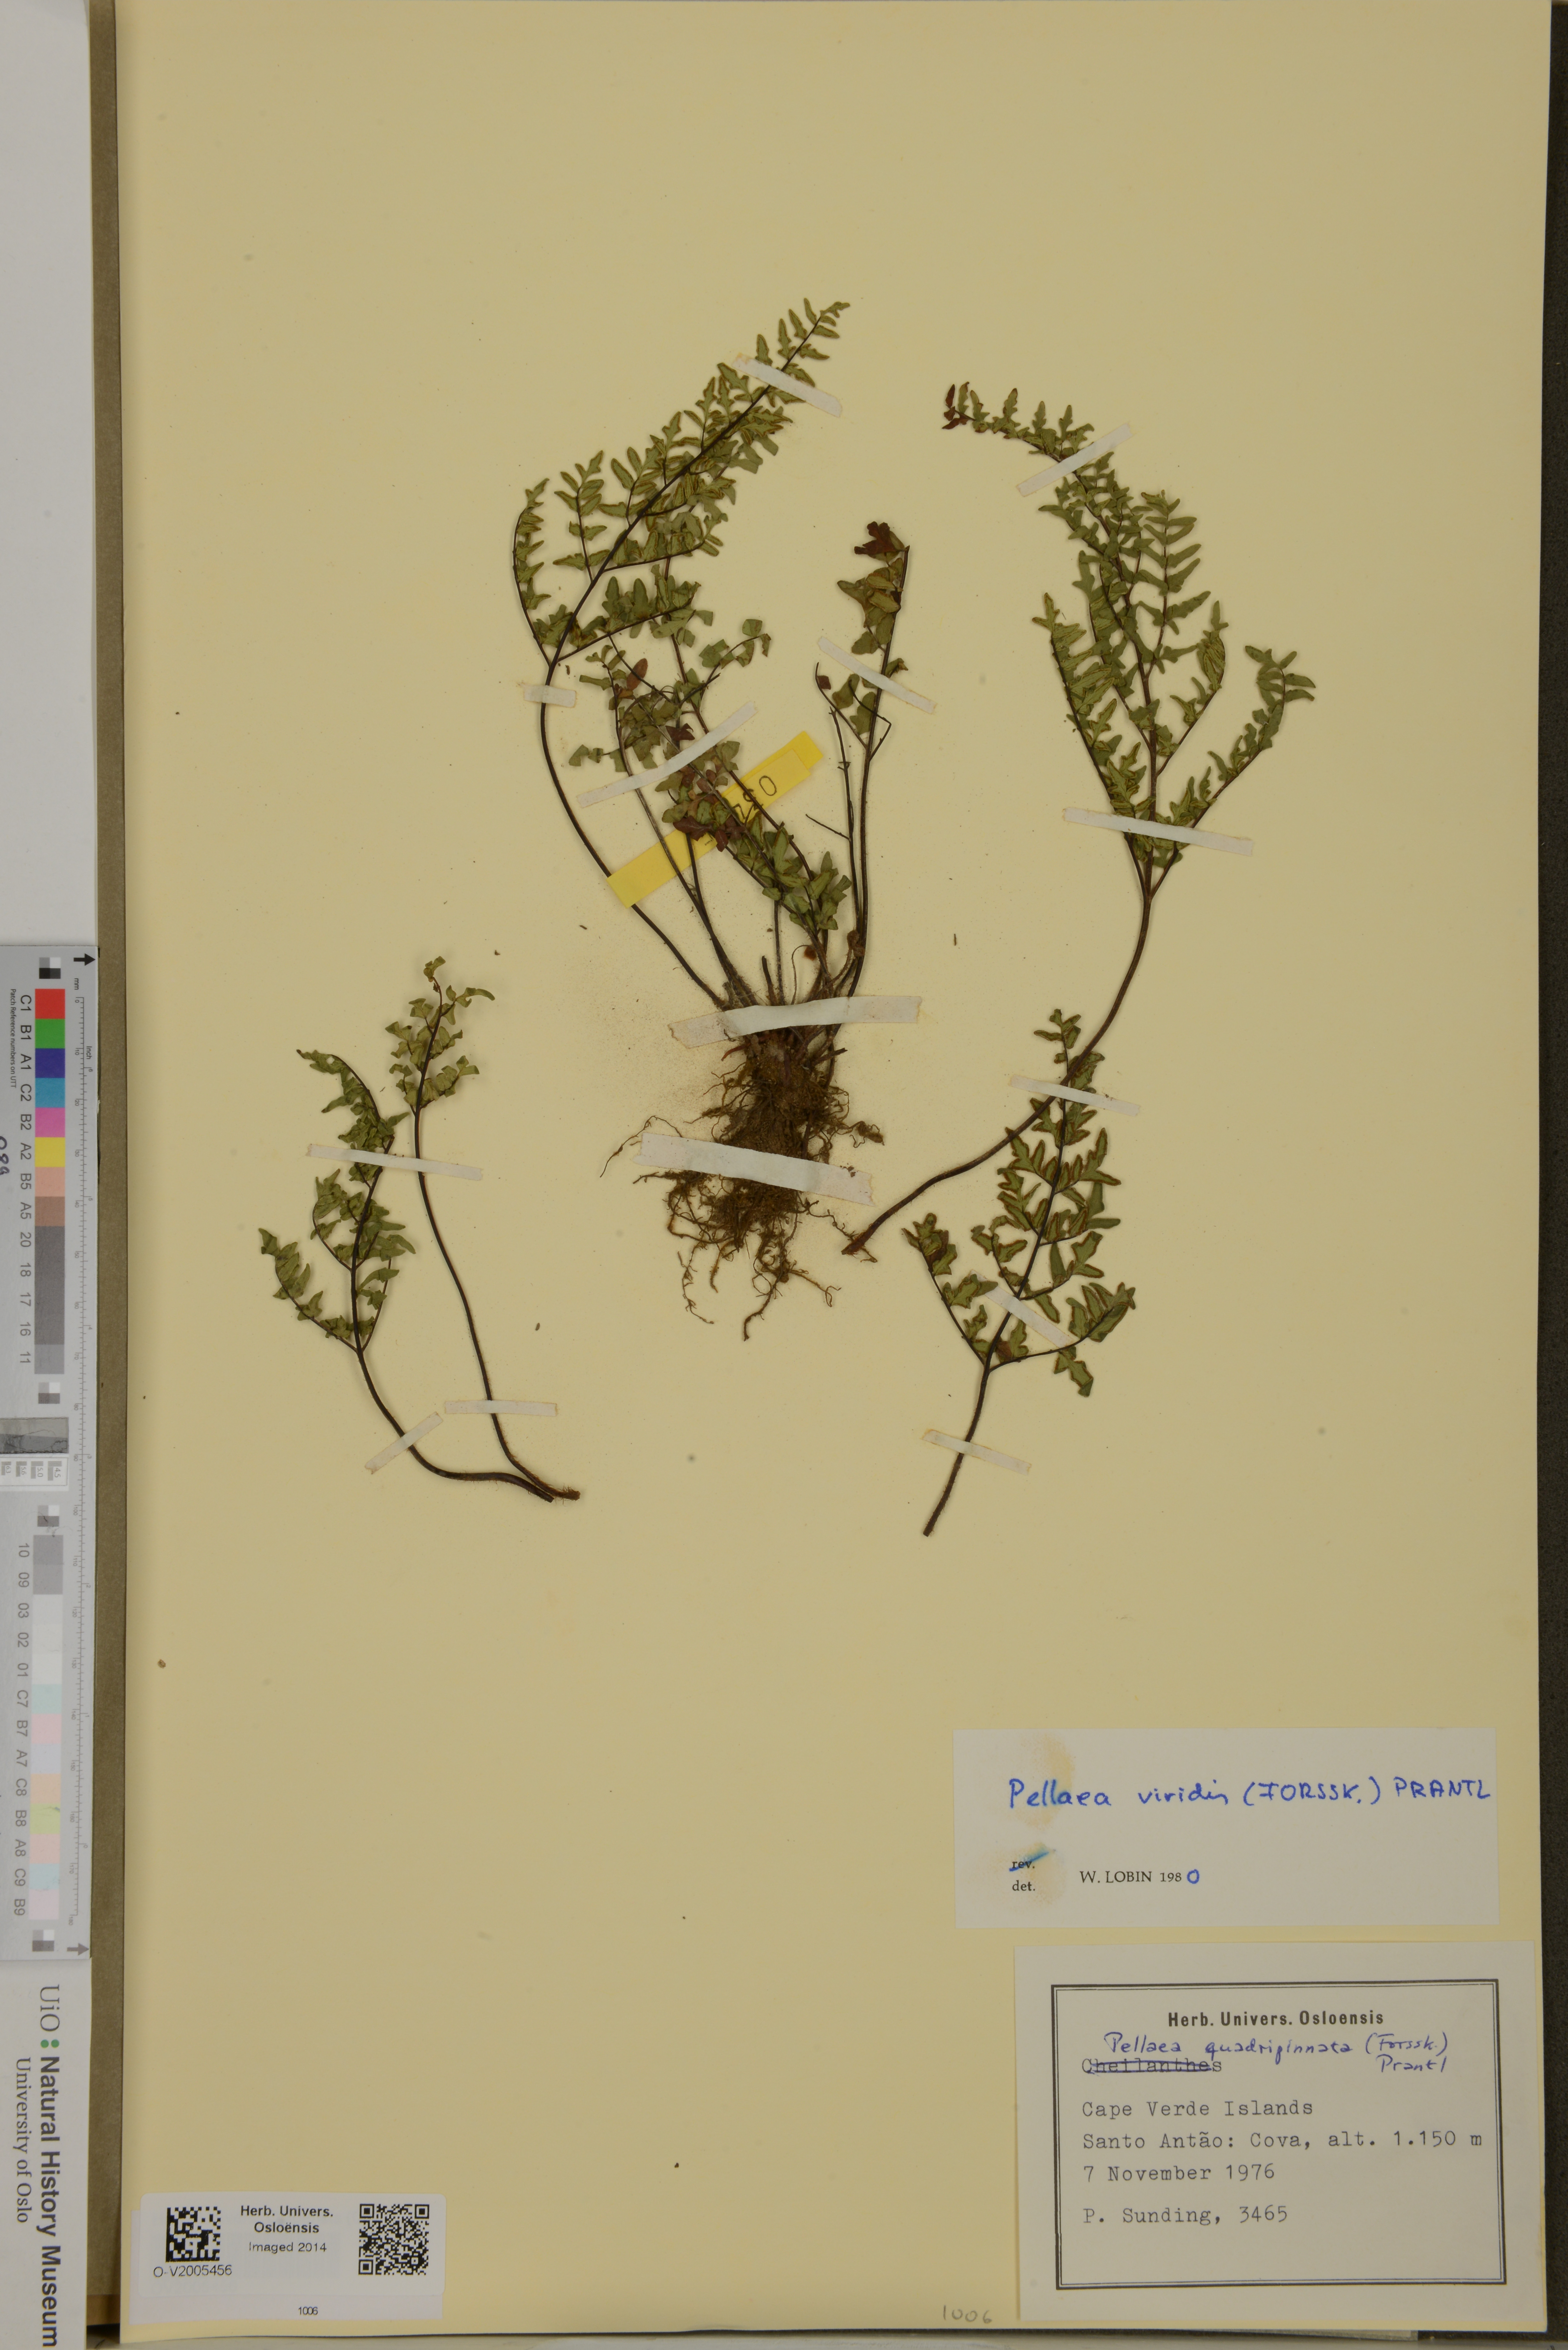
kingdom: Plantae
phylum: Tracheophyta
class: Polypodiopsida
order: Polypodiales
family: Pteridaceae
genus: Cheilanthes
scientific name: Cheilanthes viridis
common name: Green cliffbrake
